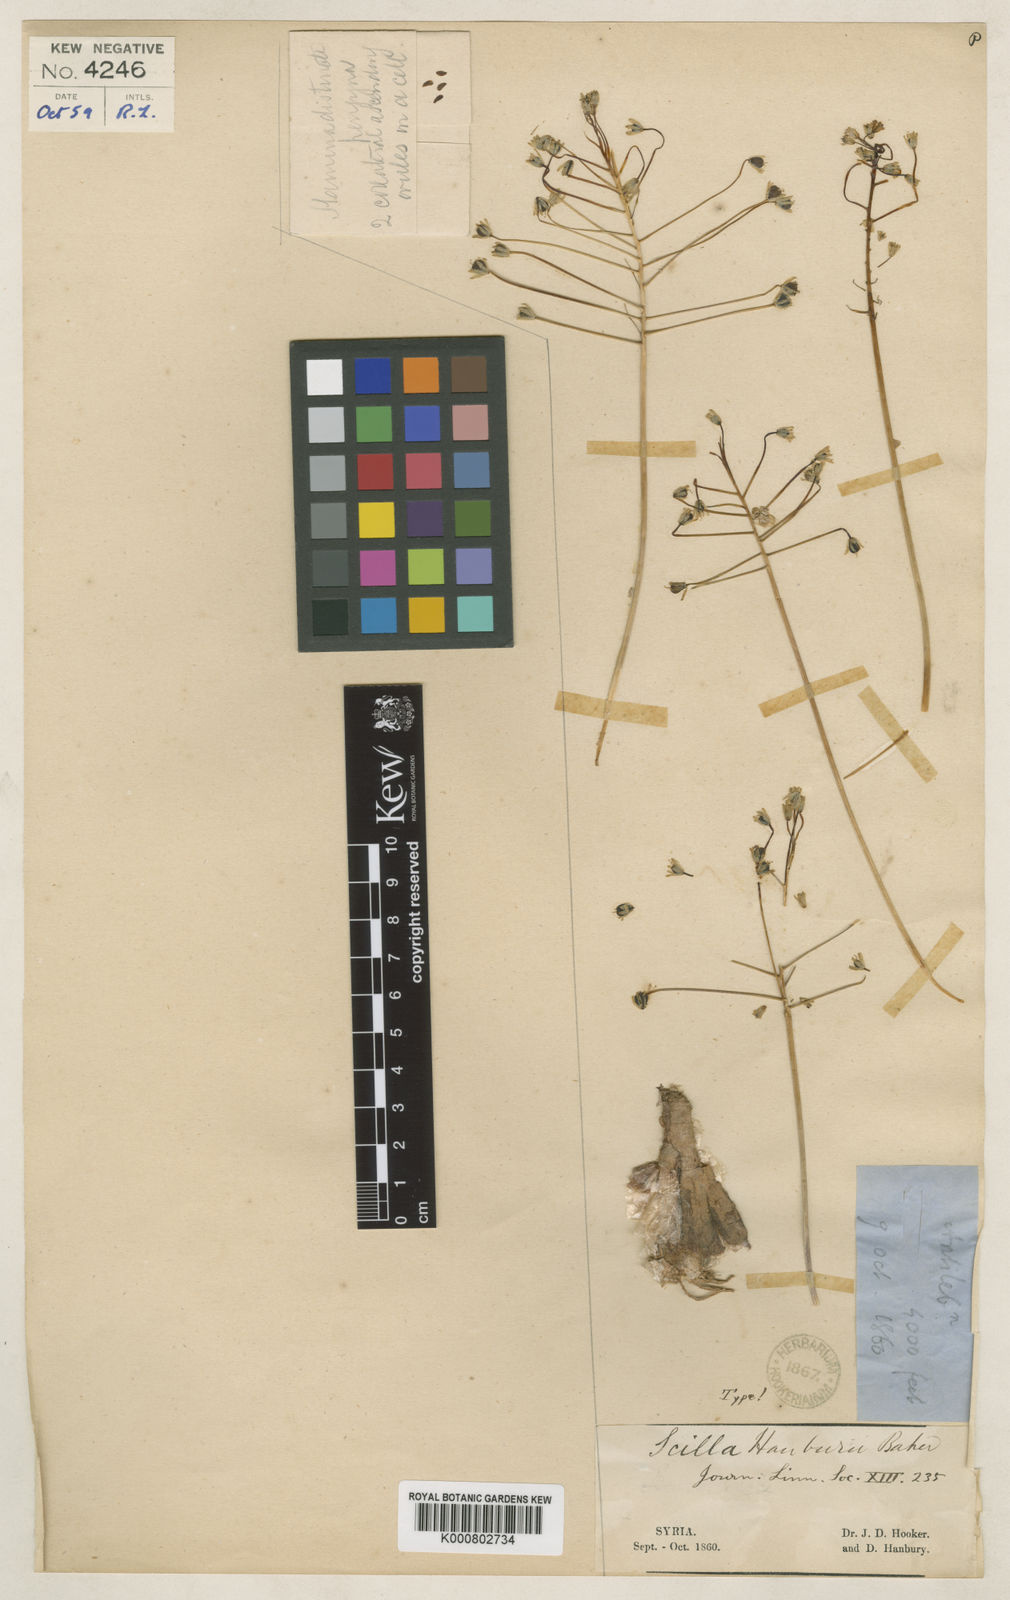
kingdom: Plantae
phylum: Tracheophyta
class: Liliopsida
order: Asparagales
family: Asparagaceae
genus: Scilla
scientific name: Scilla
